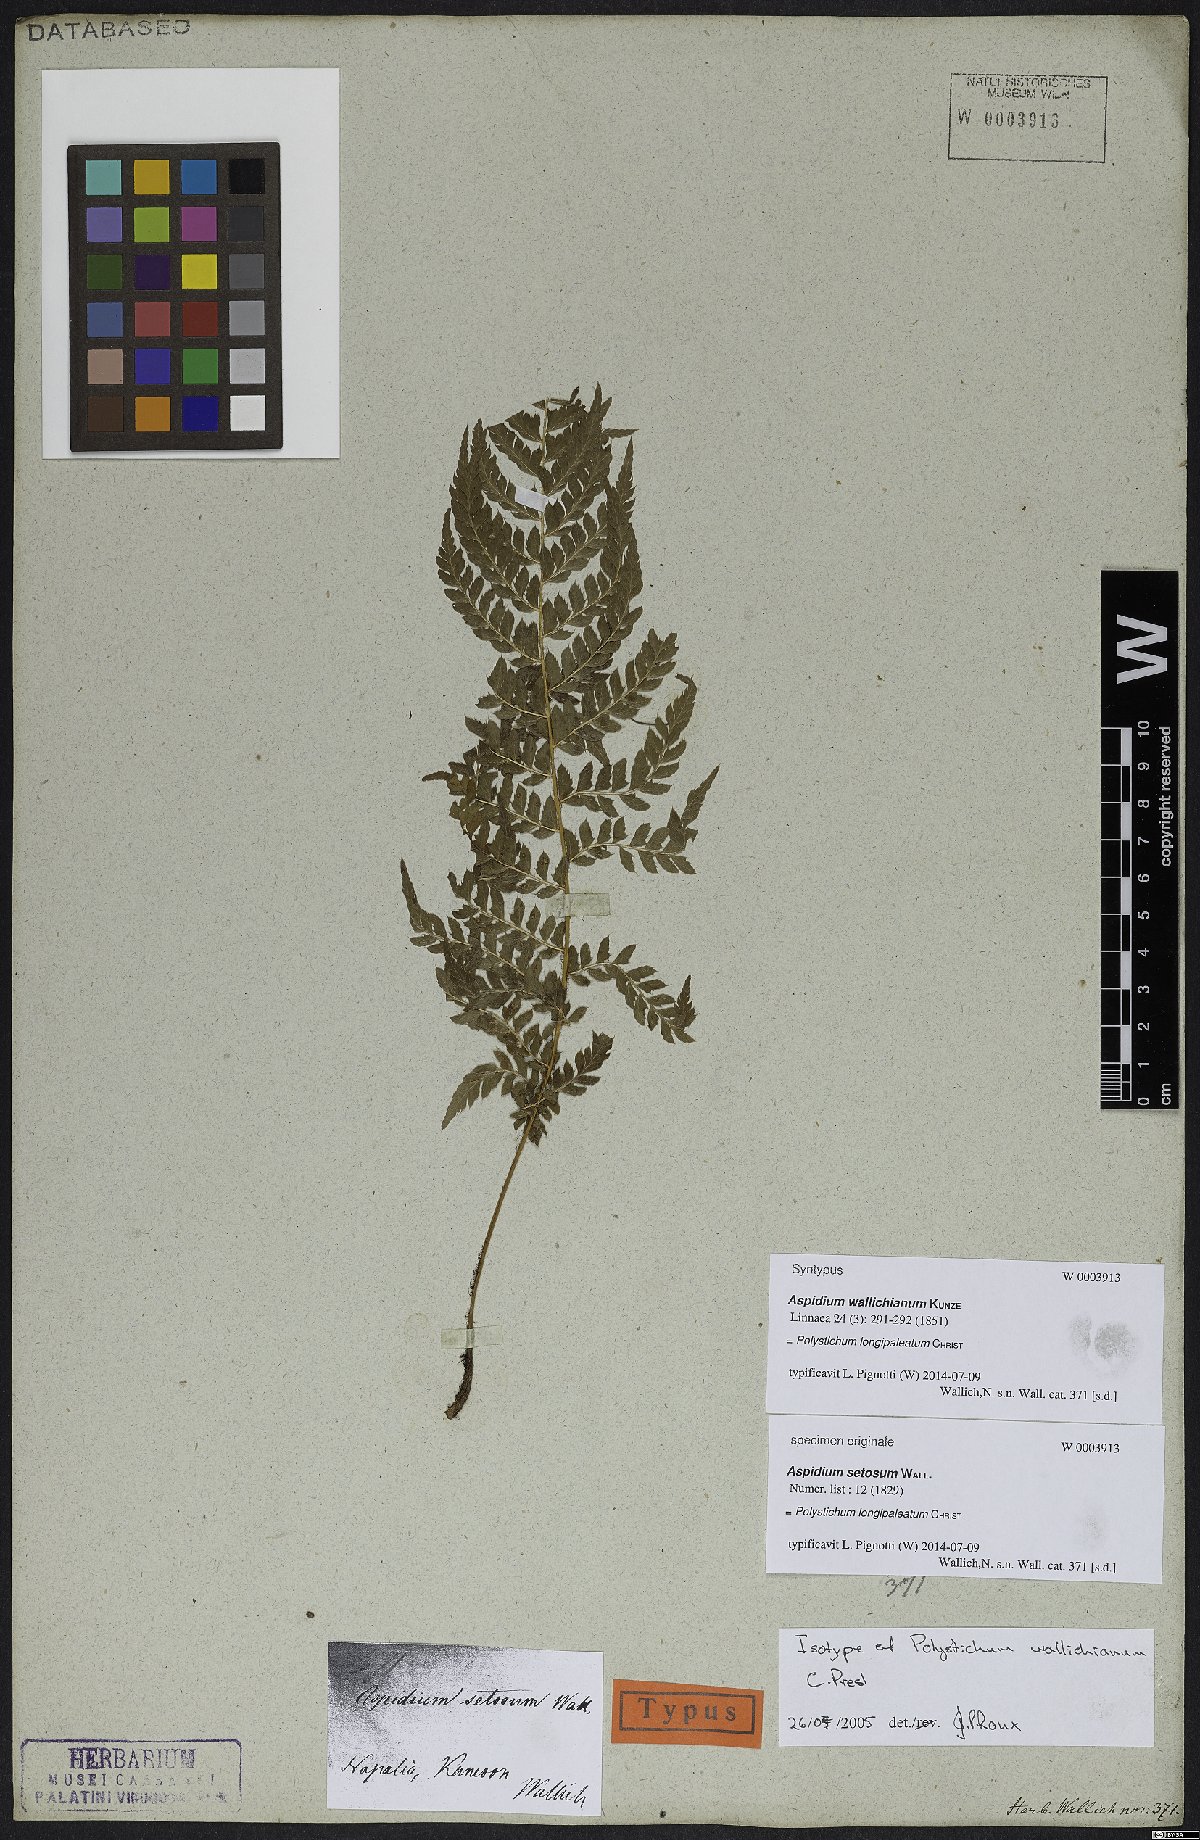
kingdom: Plantae
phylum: Tracheophyta
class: Polypodiopsida
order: Polypodiales
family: Dryopteridaceae
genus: Polystichum
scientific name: Polystichum longipaleatum
